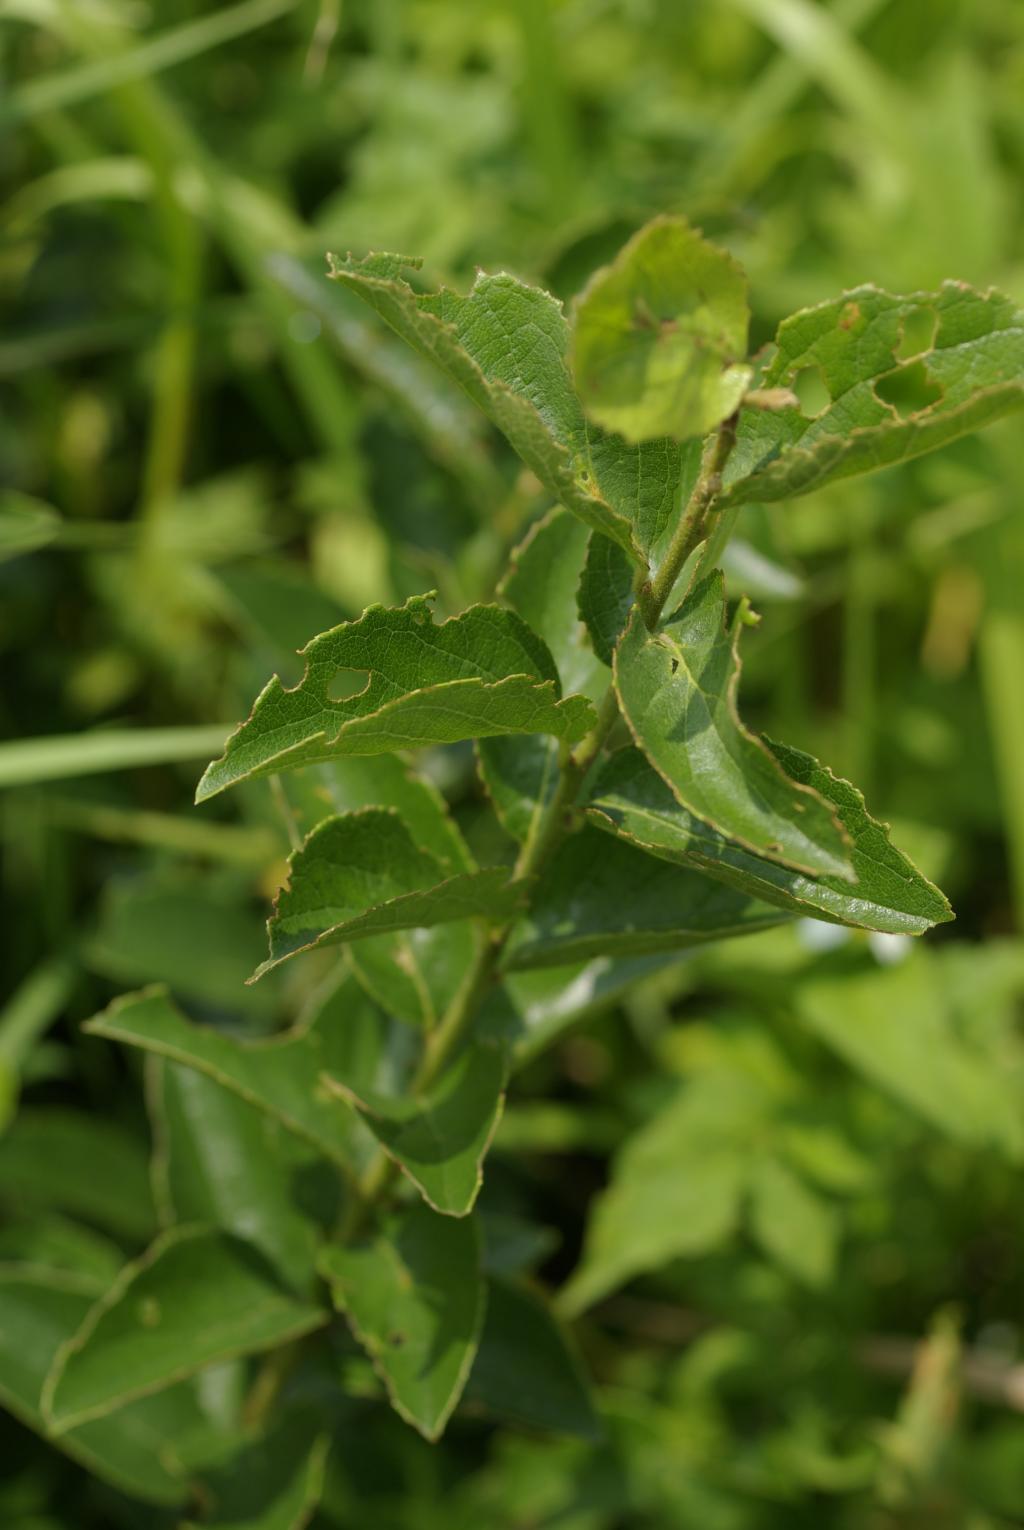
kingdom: Plantae
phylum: Tracheophyta
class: Magnoliopsida
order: Ericales
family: Symplocaceae
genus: Symplocos
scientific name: Symplocos paniculata
